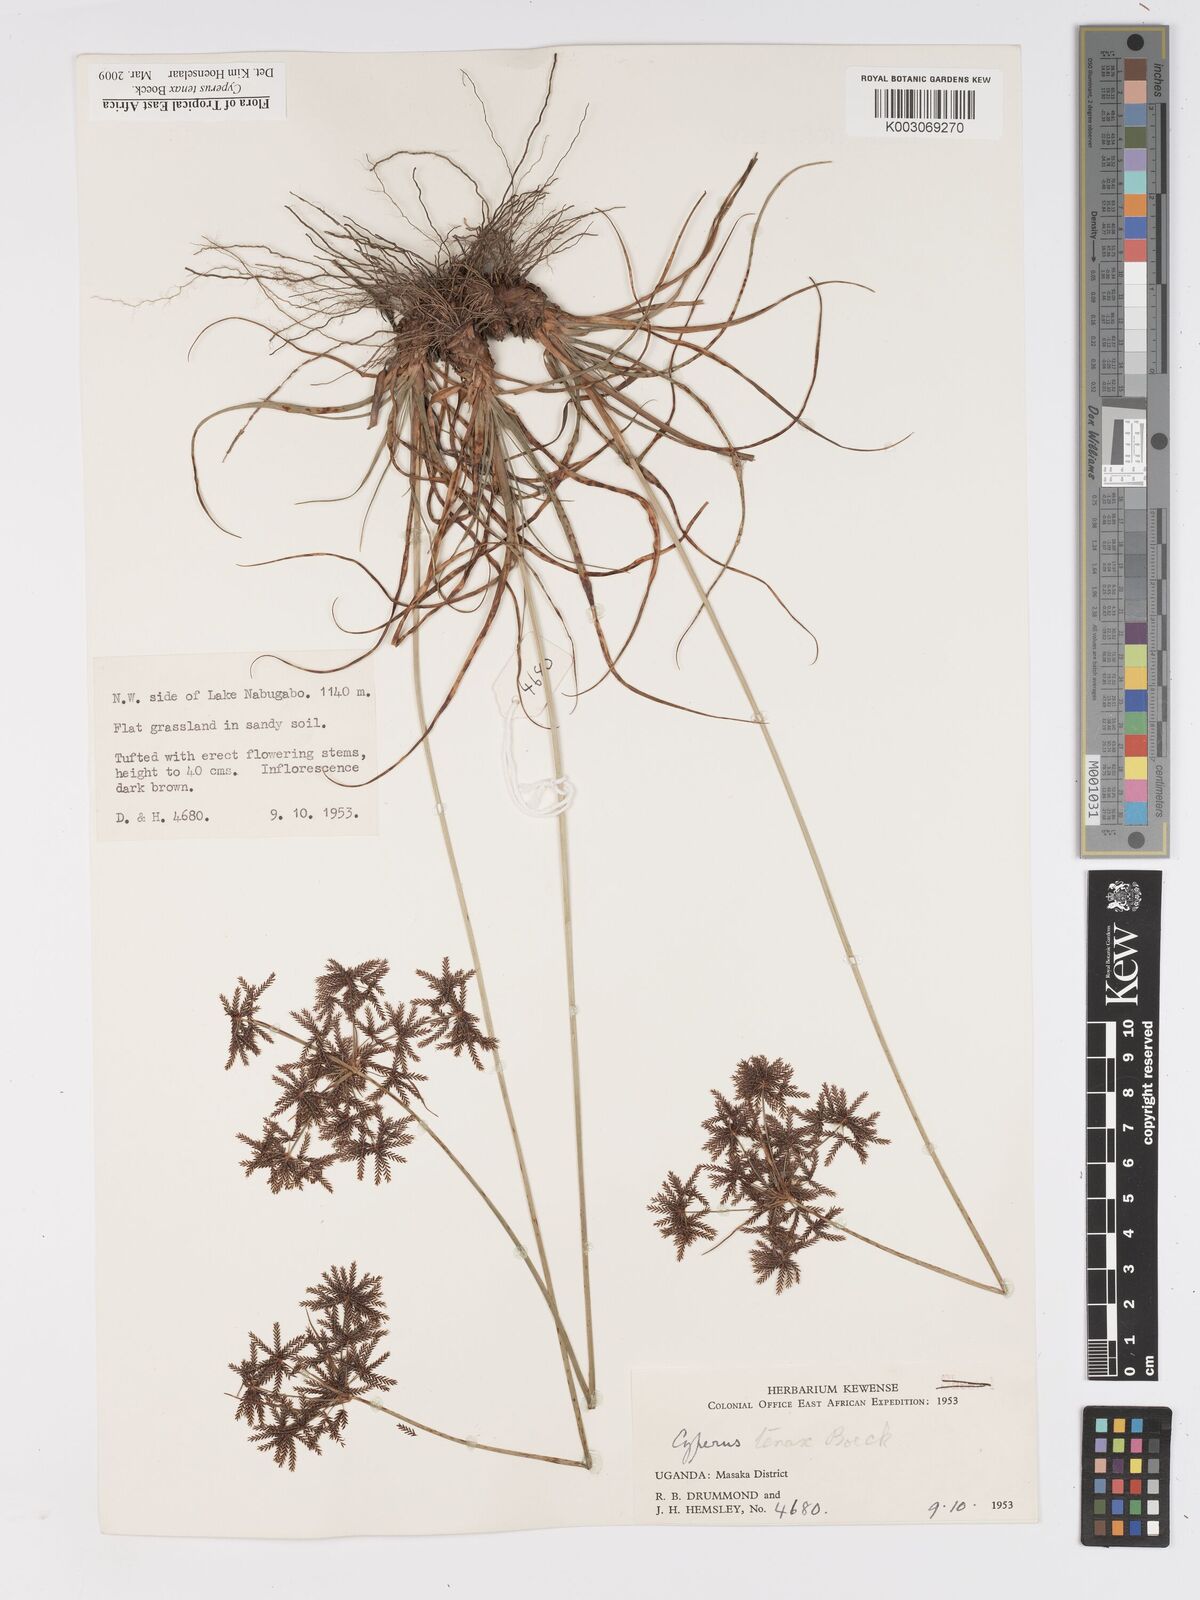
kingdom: Plantae
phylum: Tracheophyta
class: Liliopsida
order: Poales
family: Cyperaceae
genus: Cyperus
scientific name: Cyperus tenax
